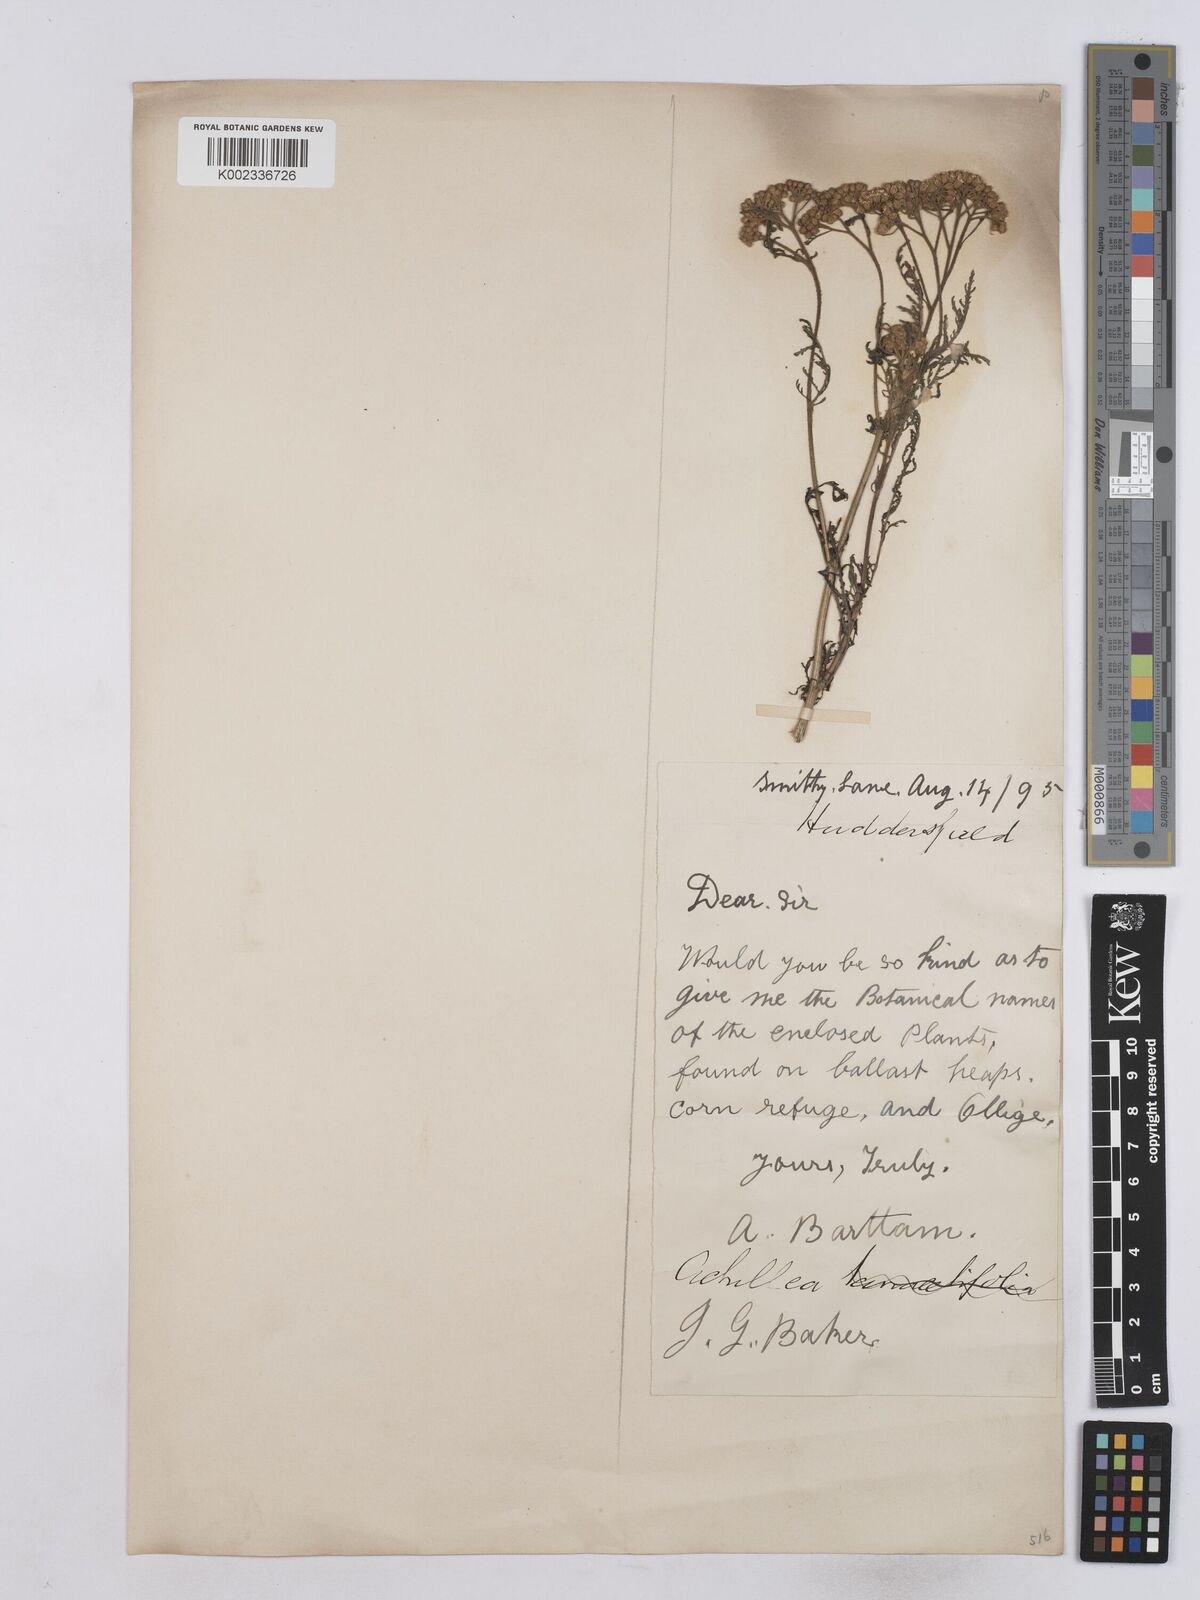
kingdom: Plantae
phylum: Tracheophyta
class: Magnoliopsida
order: Asterales
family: Asteraceae
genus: Achillea
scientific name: Achillea collina
